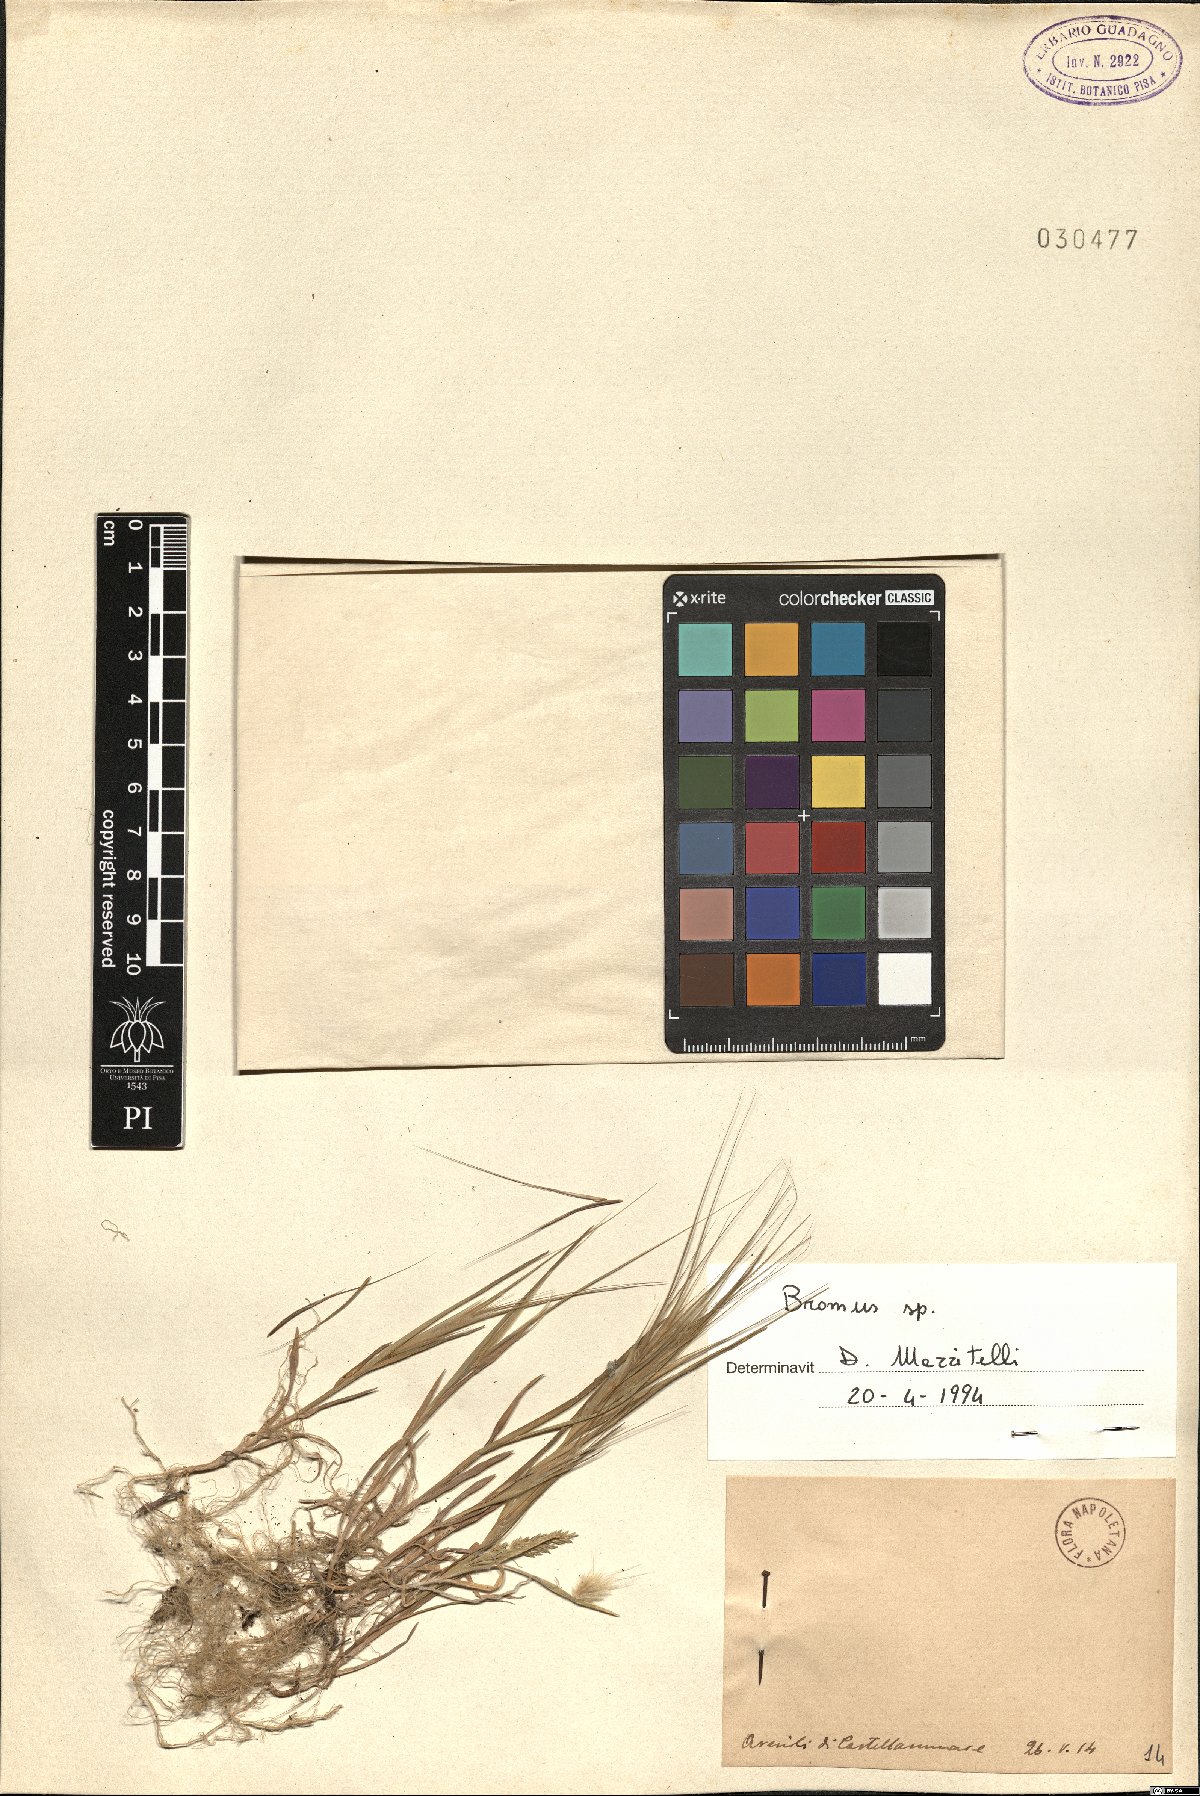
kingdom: Plantae
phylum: Tracheophyta
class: Liliopsida
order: Poales
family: Poaceae
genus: Bromus
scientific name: Bromus
